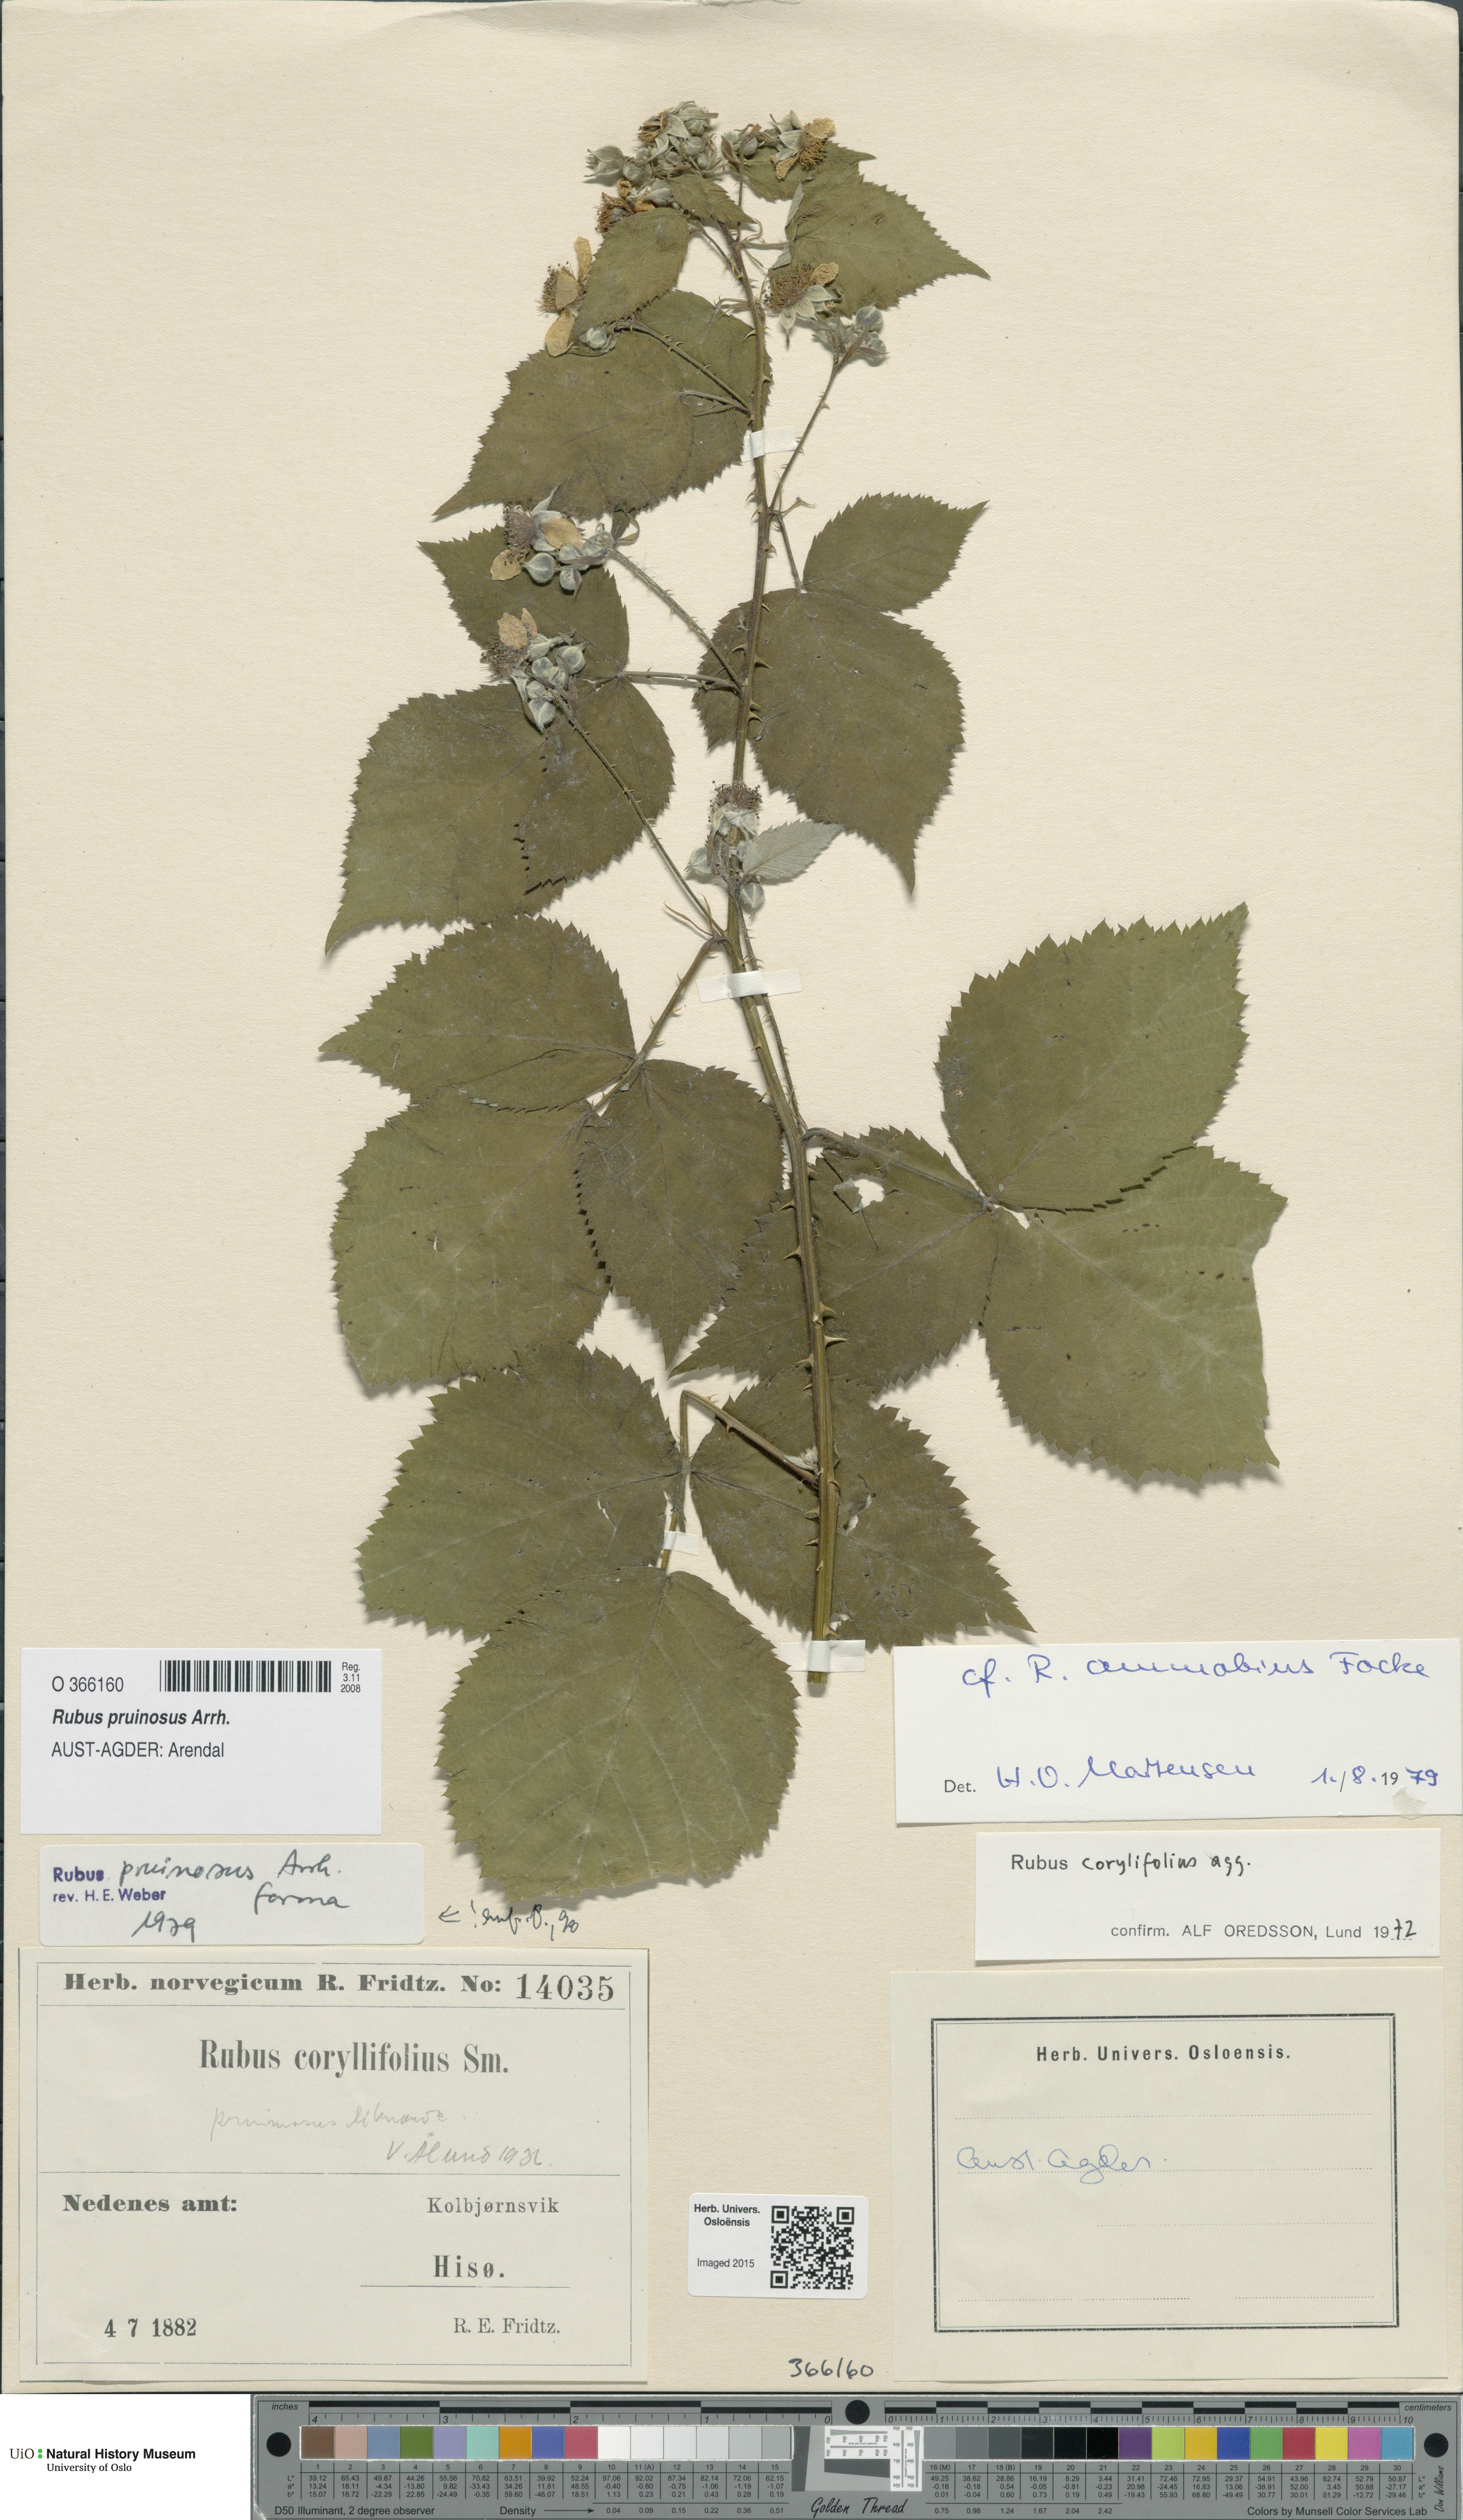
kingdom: Plantae
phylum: Tracheophyta
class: Magnoliopsida
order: Rosales
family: Rosaceae
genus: Rubus
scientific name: Rubus pruinosus
